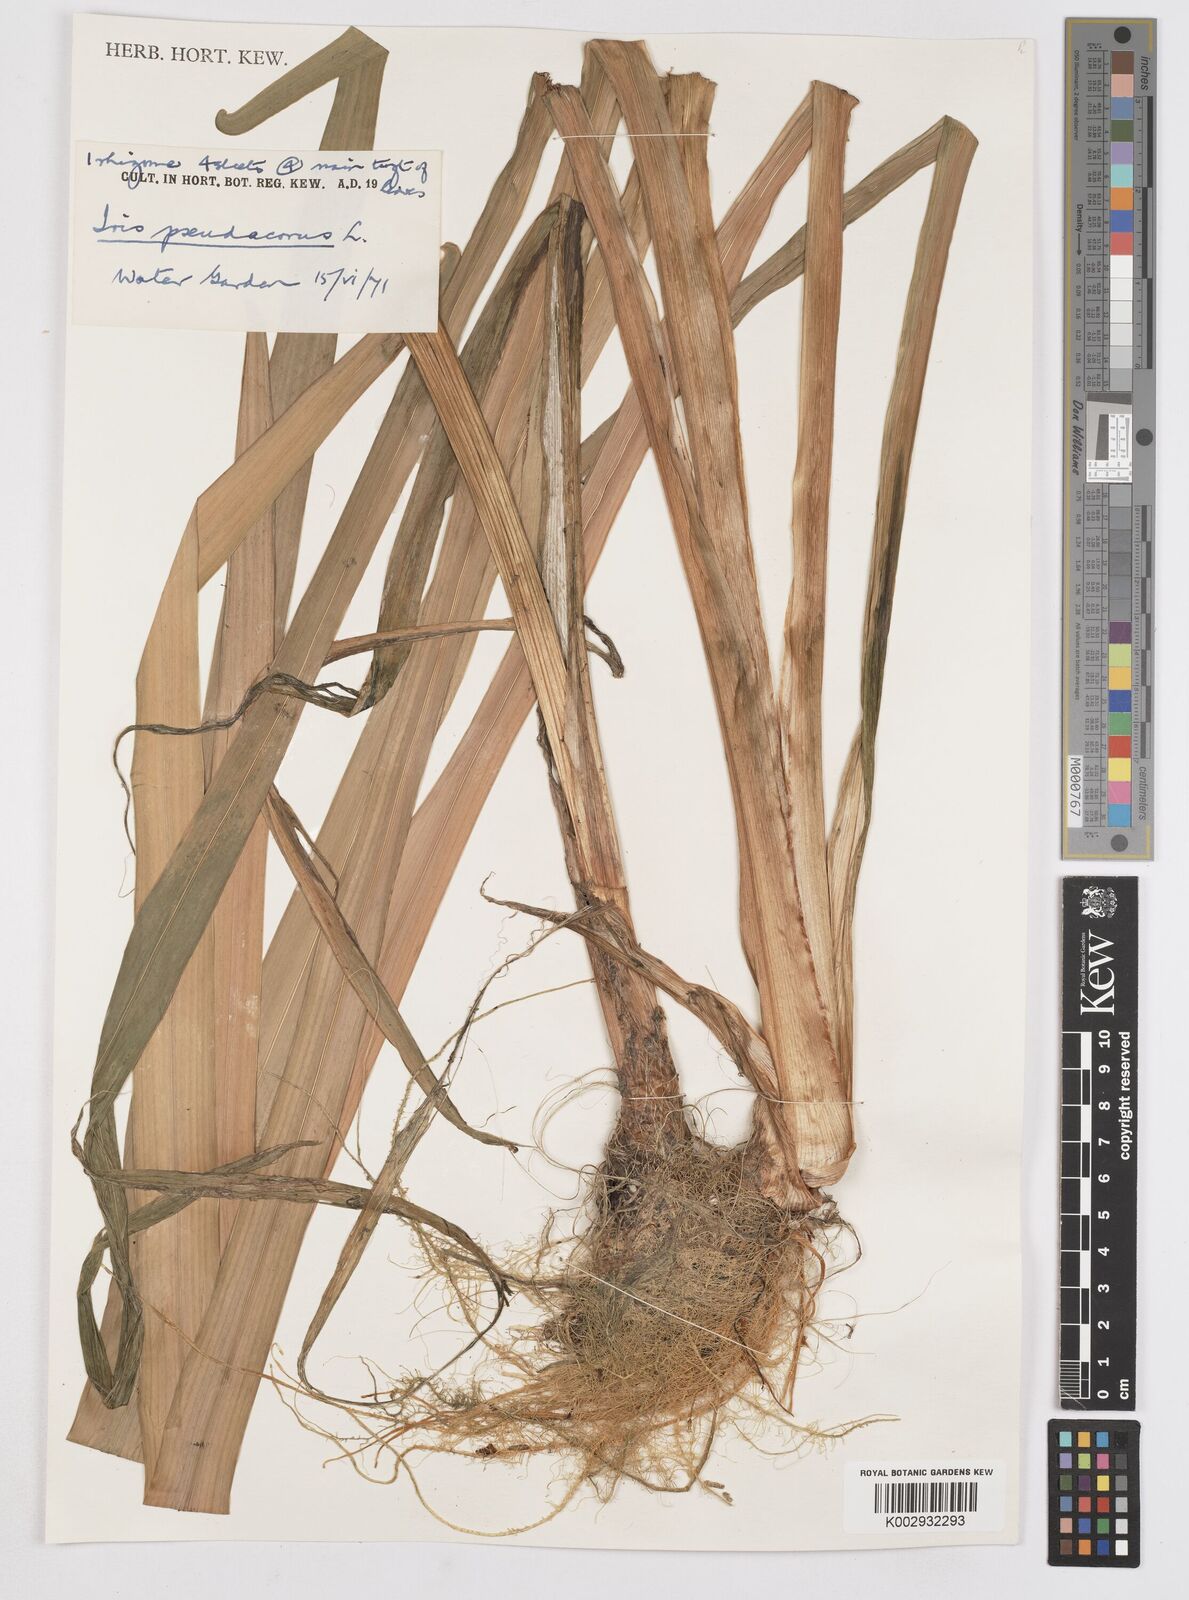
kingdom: Plantae
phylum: Tracheophyta
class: Liliopsida
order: Asparagales
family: Iridaceae
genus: Iris
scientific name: Iris pseudacorus
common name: Yellow flag
